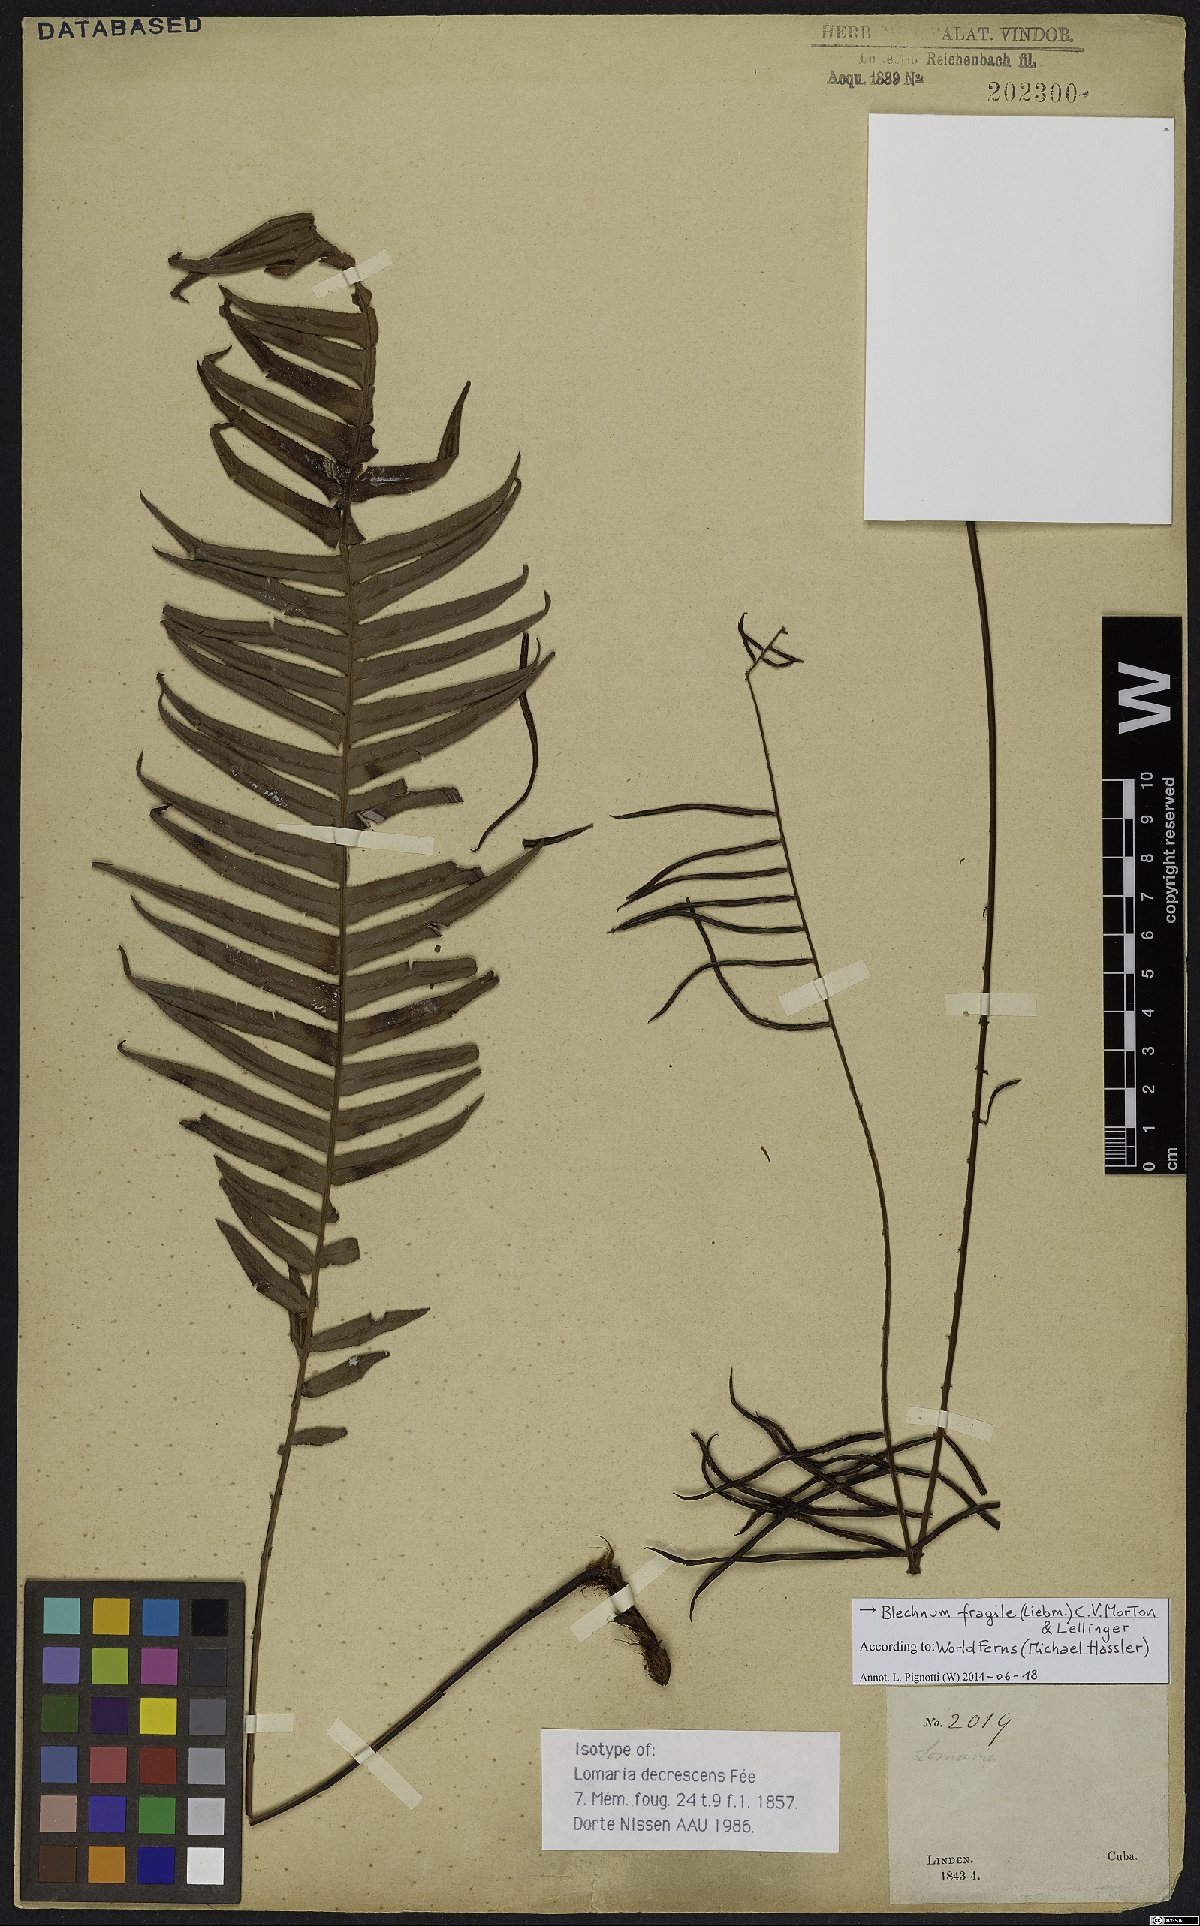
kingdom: Plantae
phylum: Tracheophyta
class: Polypodiopsida
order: Polypodiales
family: Blechnaceae
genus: Lomaridium
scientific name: Lomaridium fragile
